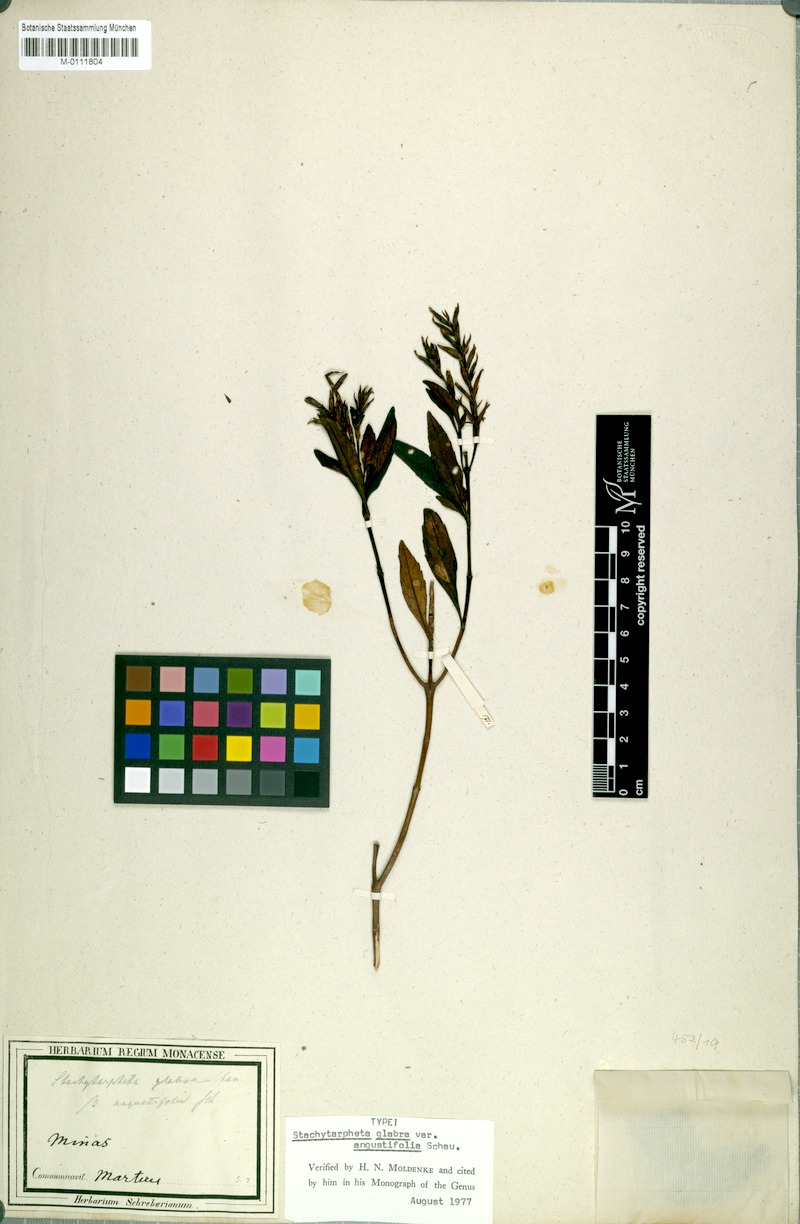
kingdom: Plantae
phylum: Tracheophyta
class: Magnoliopsida
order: Lamiales
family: Verbenaceae
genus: Stachytarpheta
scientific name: Stachytarpheta glabra
